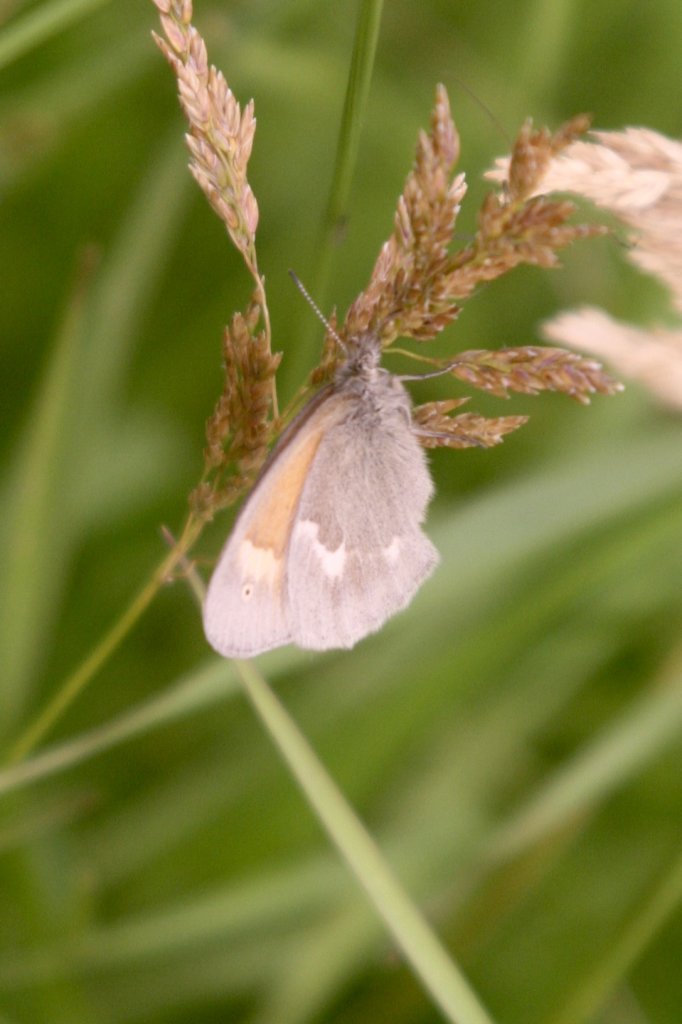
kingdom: Animalia
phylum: Arthropoda
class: Insecta
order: Lepidoptera
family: Nymphalidae
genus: Coenonympha
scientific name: Coenonympha tullia
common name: Large Heath
